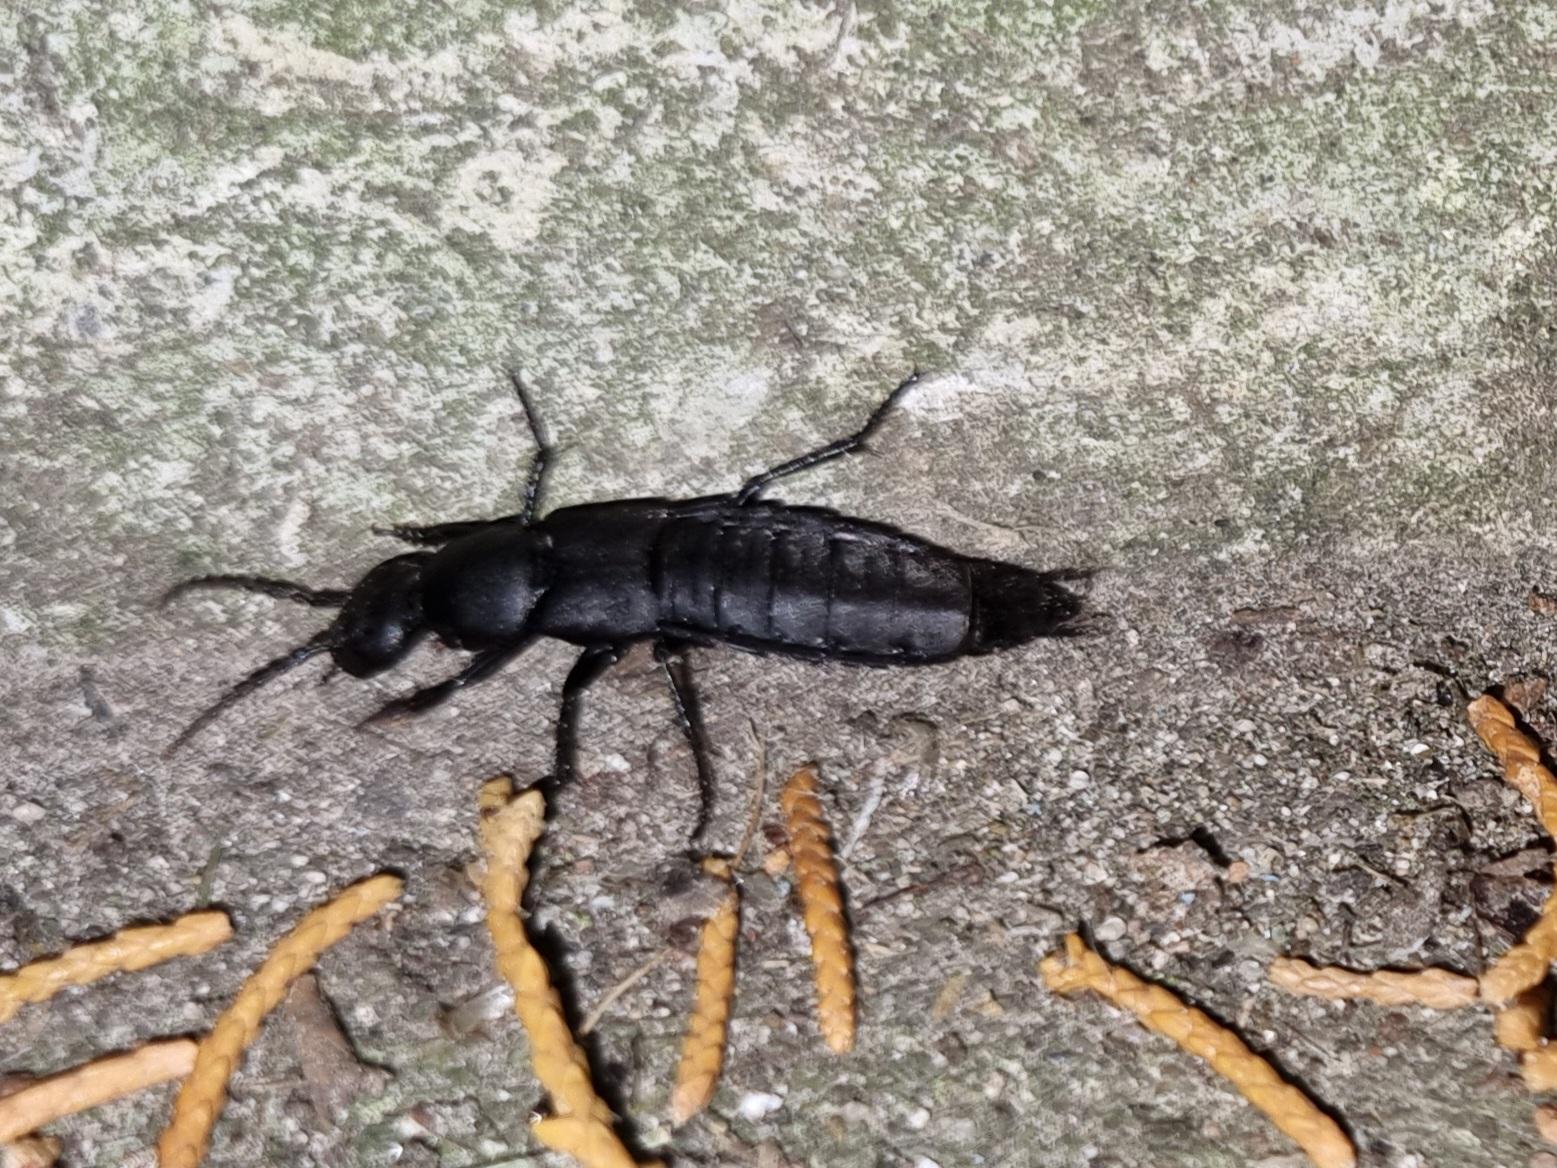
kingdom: Animalia
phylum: Arthropoda
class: Insecta
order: Coleoptera
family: Staphylinidae
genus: Ocypus
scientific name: Ocypus olens
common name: Stor rovbille
